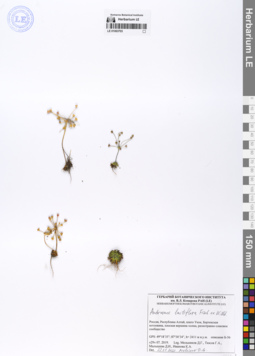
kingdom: Plantae
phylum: Tracheophyta
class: Magnoliopsida
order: Ericales
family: Primulaceae
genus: Androsace
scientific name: Androsace lactiflora
